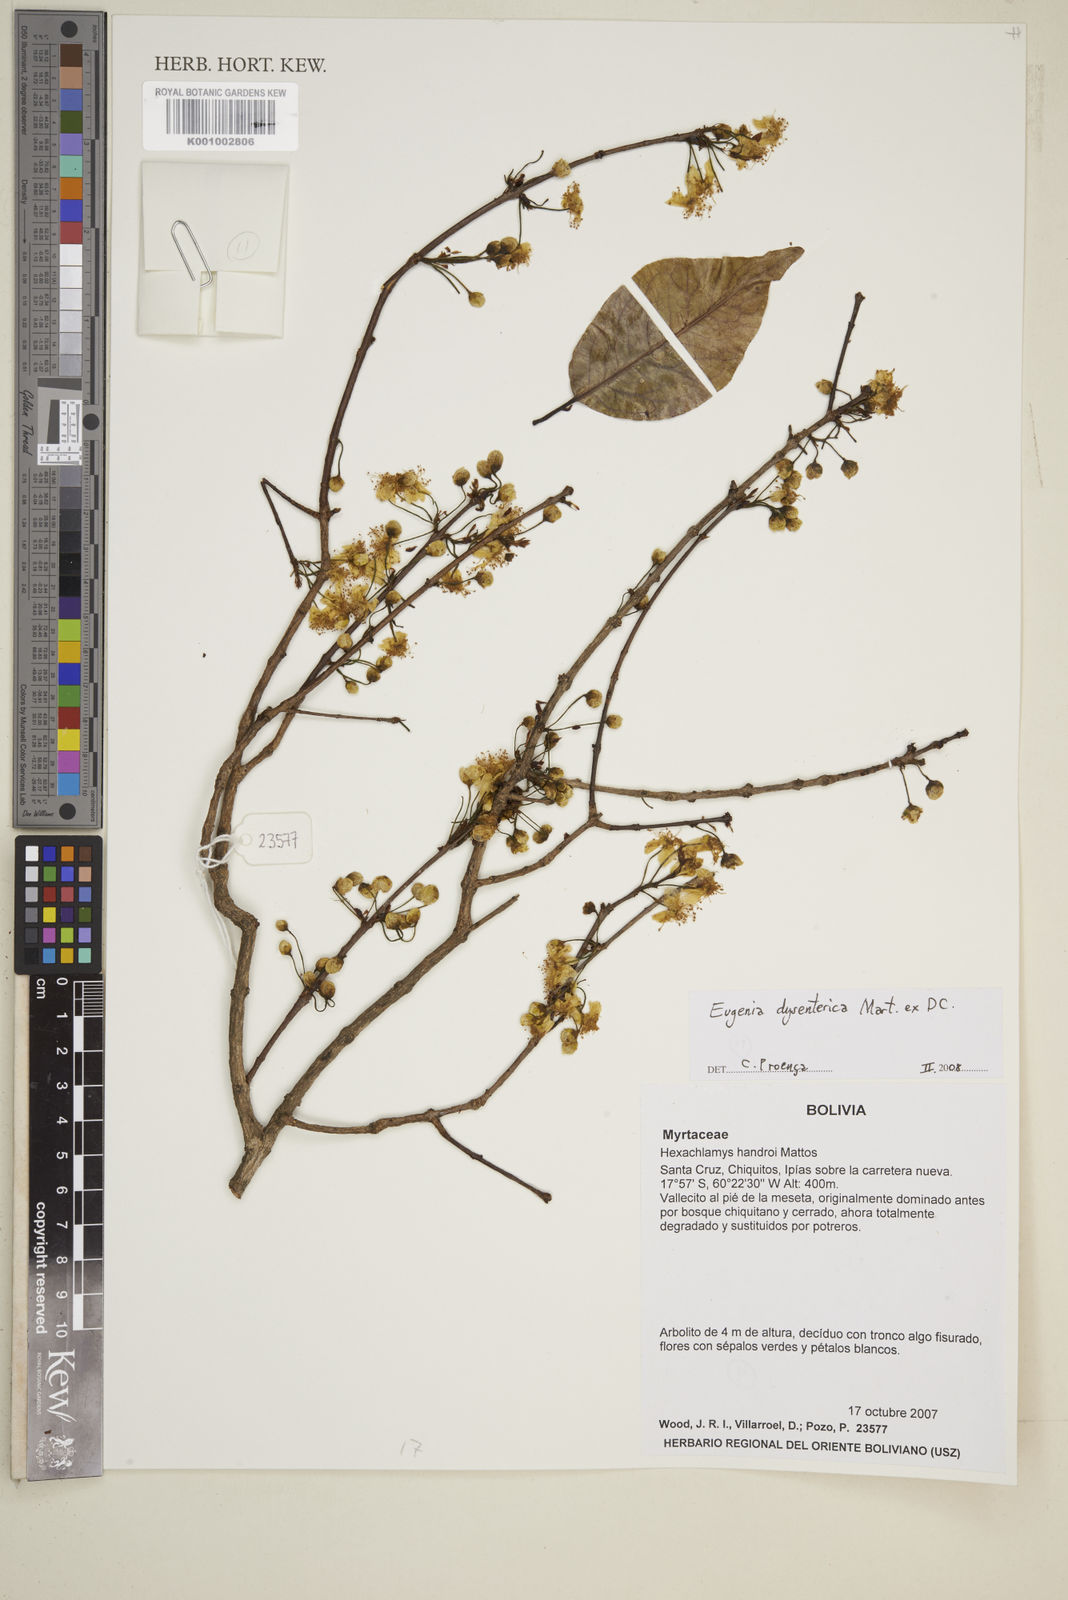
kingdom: Plantae
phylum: Tracheophyta
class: Magnoliopsida
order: Myrtales
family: Myrtaceae
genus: Eugenia
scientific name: Eugenia dysenterica
